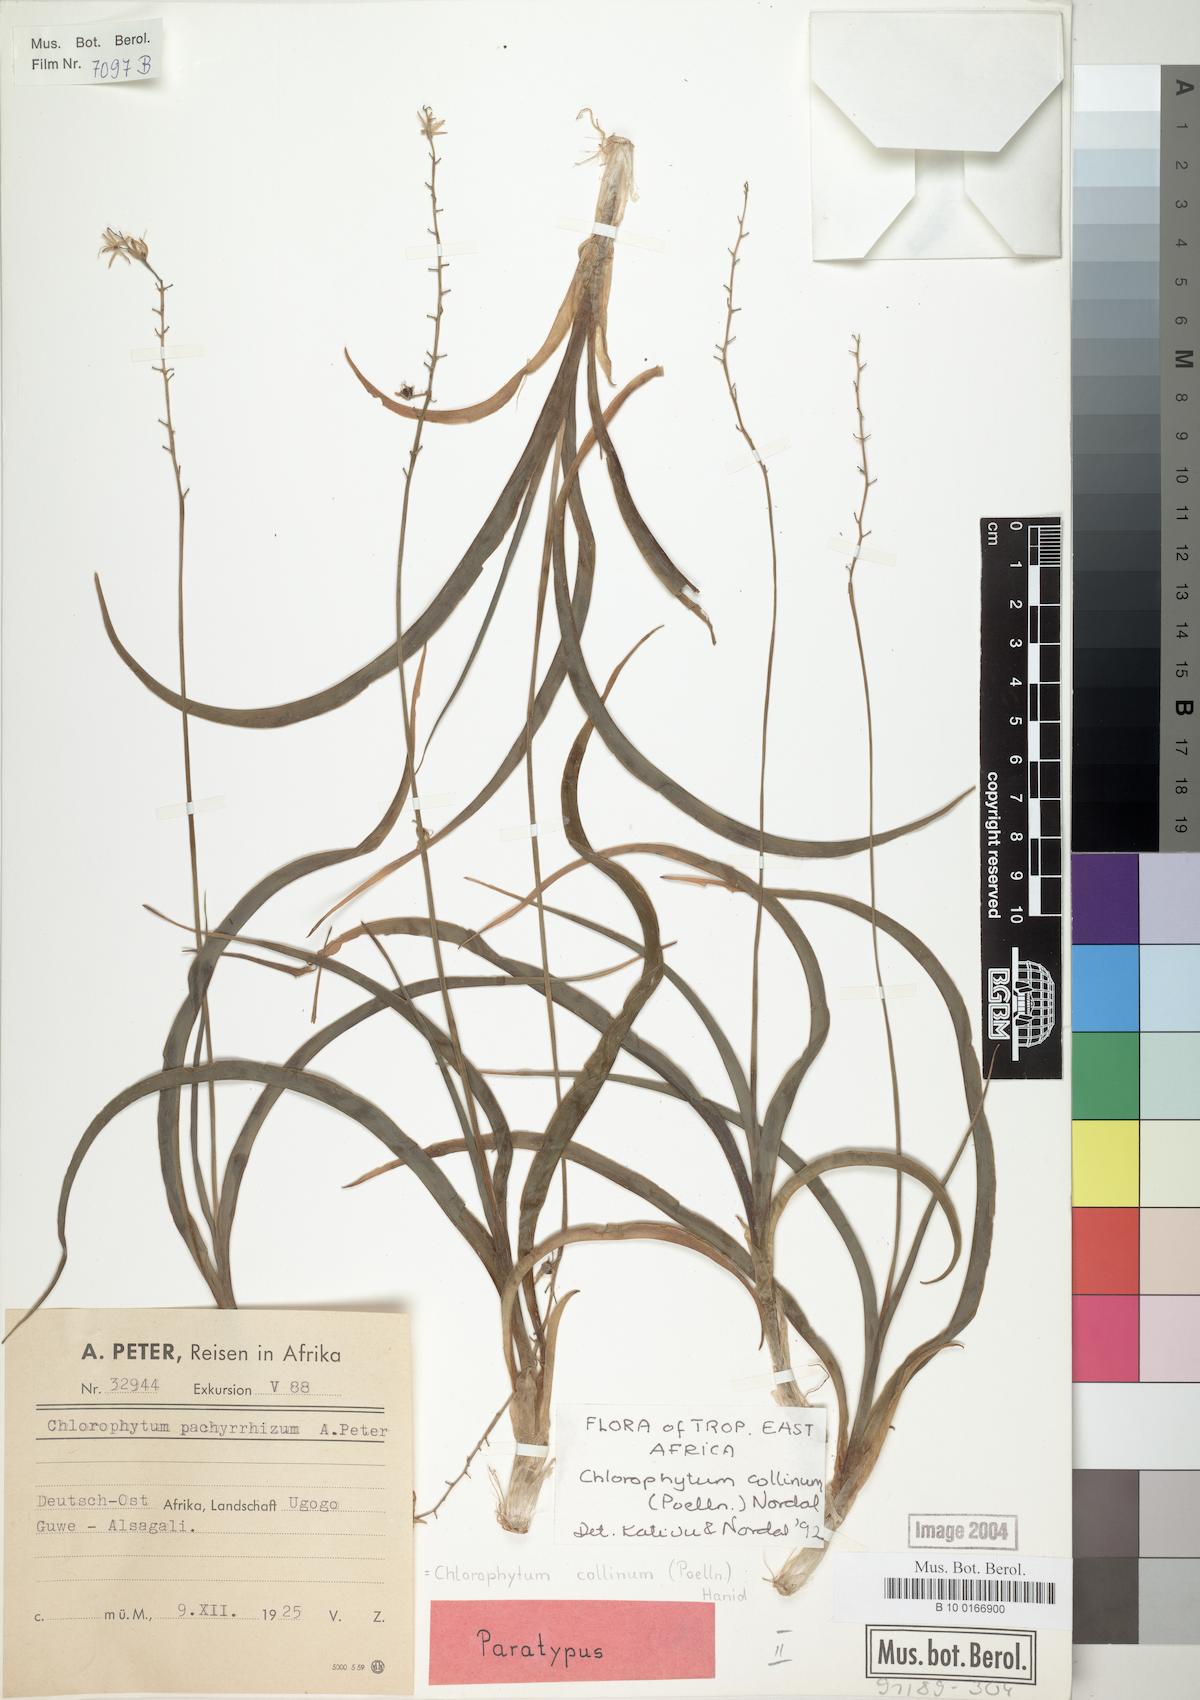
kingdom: Plantae
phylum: Tracheophyta
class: Liliopsida
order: Asparagales
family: Asparagaceae
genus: Chlorophytum
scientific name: Chlorophytum collinum
